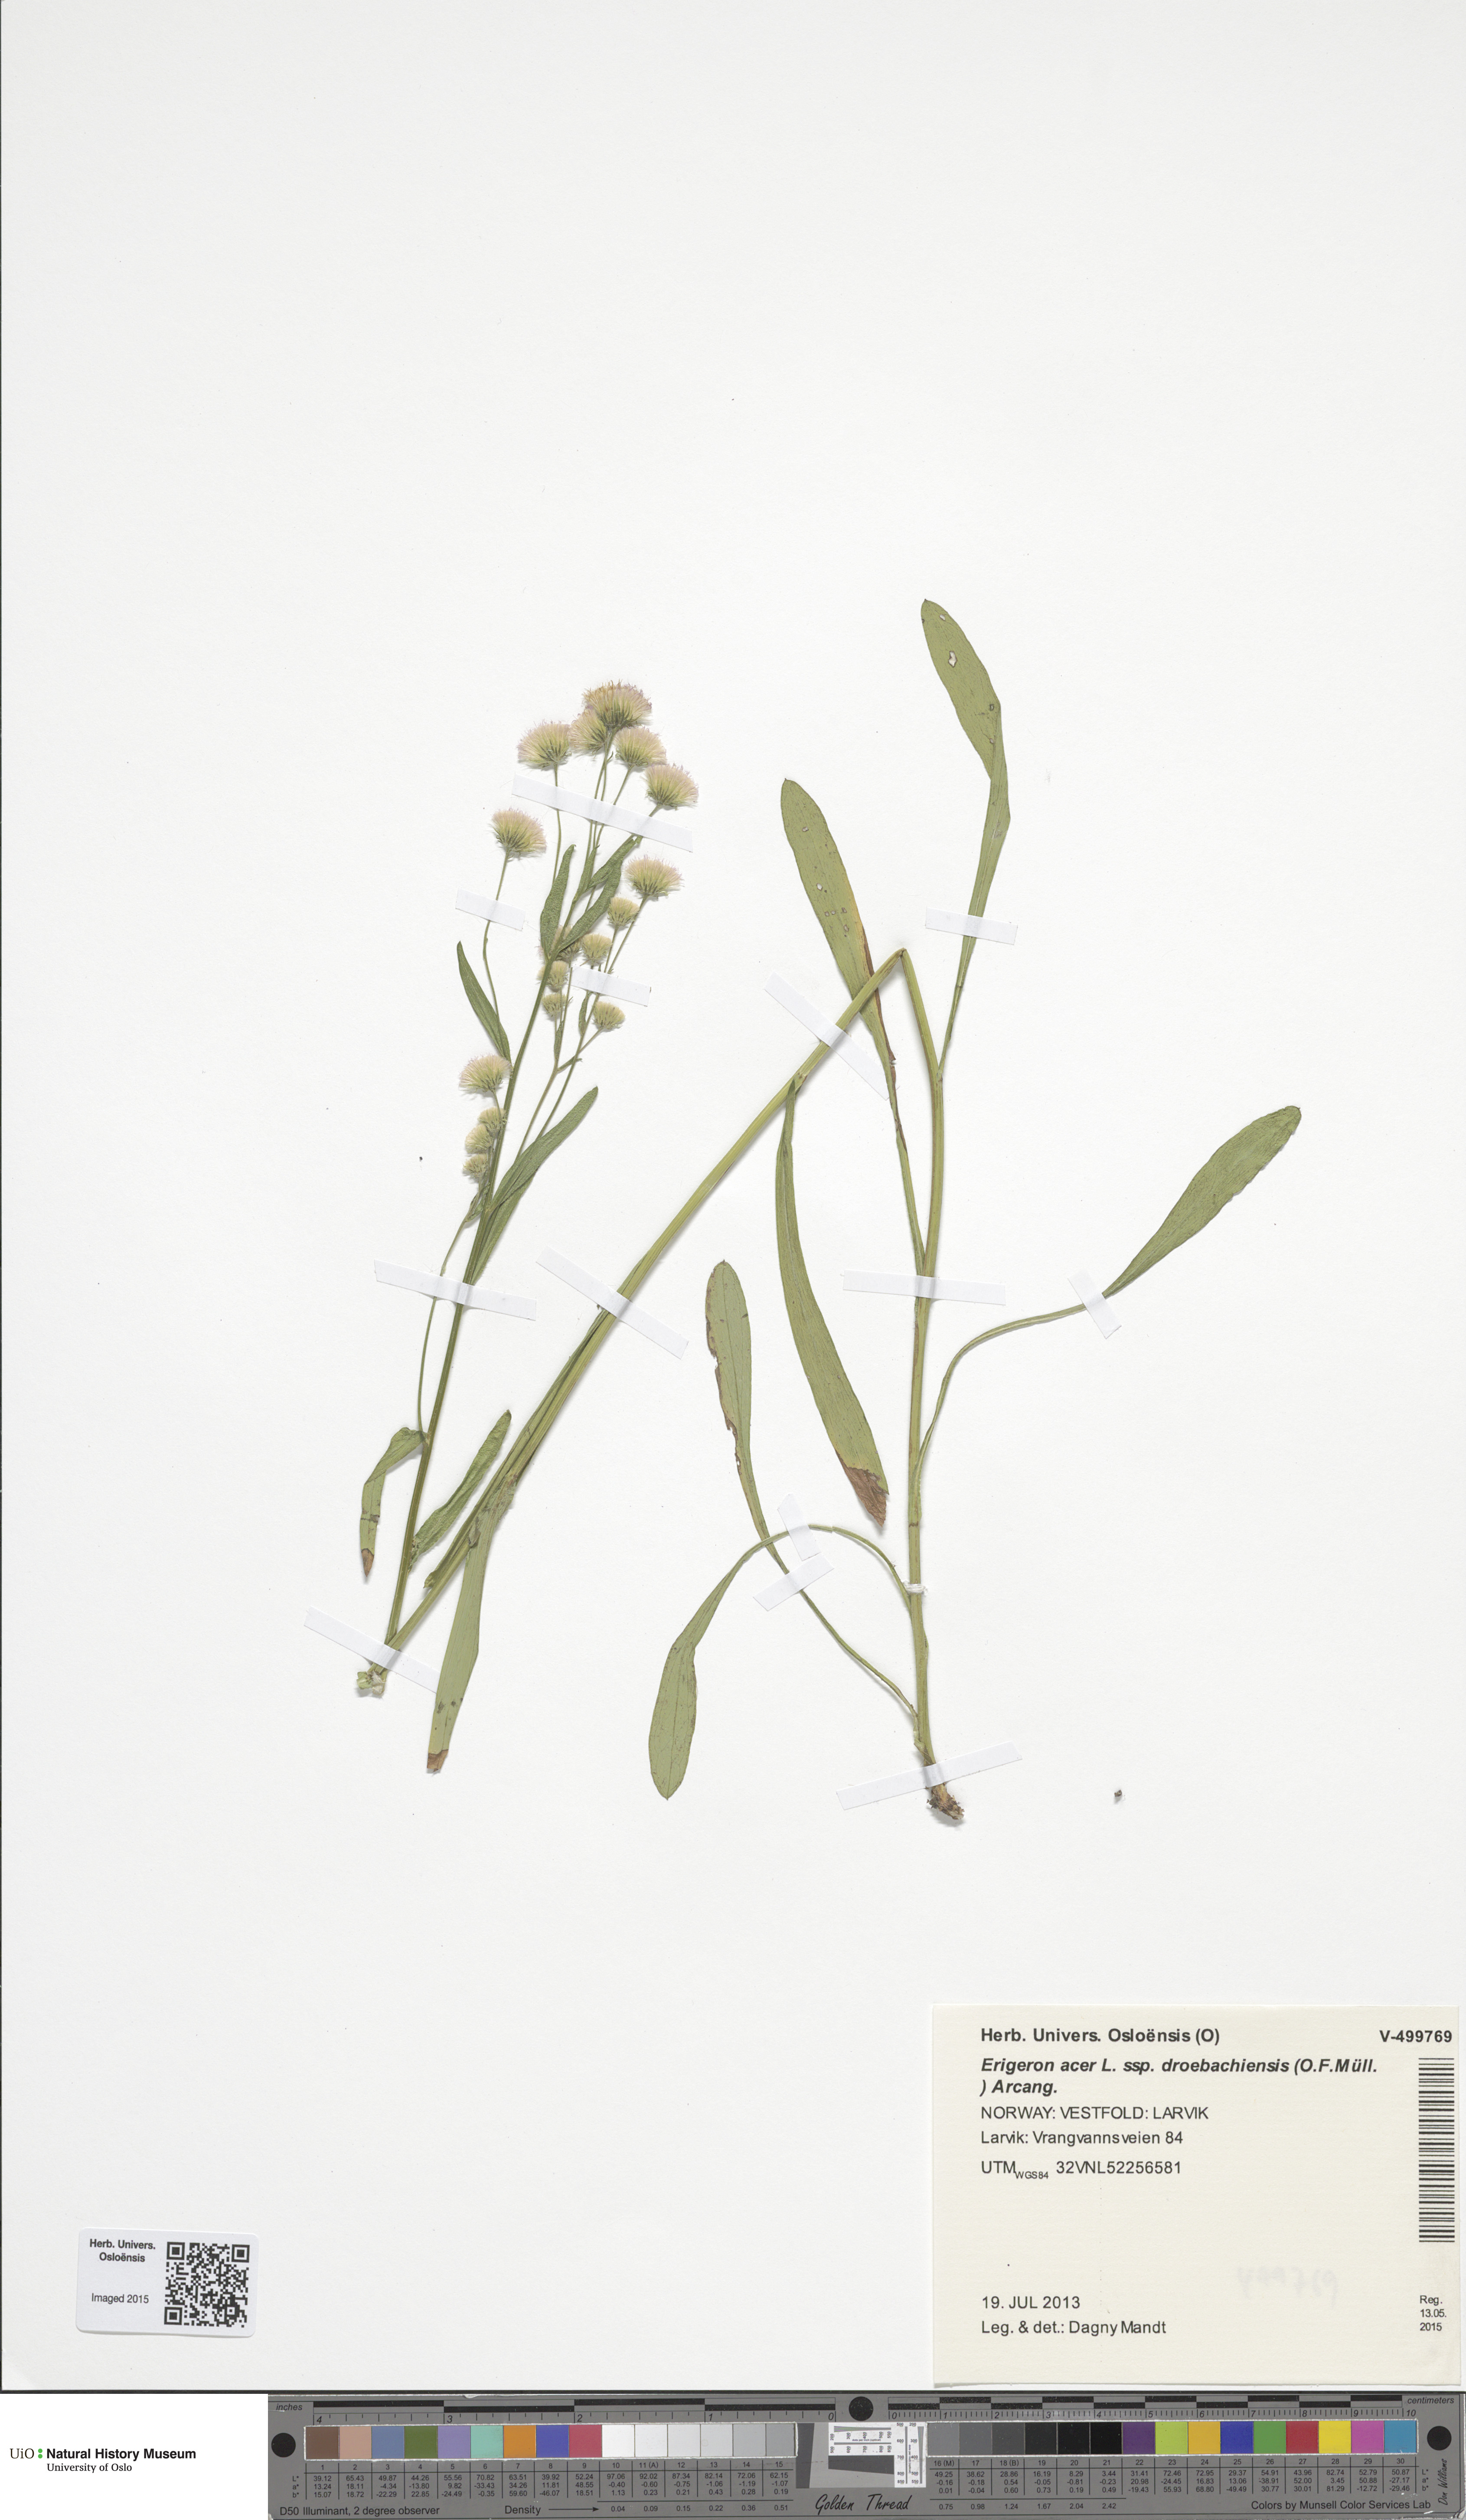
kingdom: Plantae
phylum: Tracheophyta
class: Magnoliopsida
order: Asterales
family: Asteraceae
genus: Erigeron
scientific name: Erigeron droebachiensis
